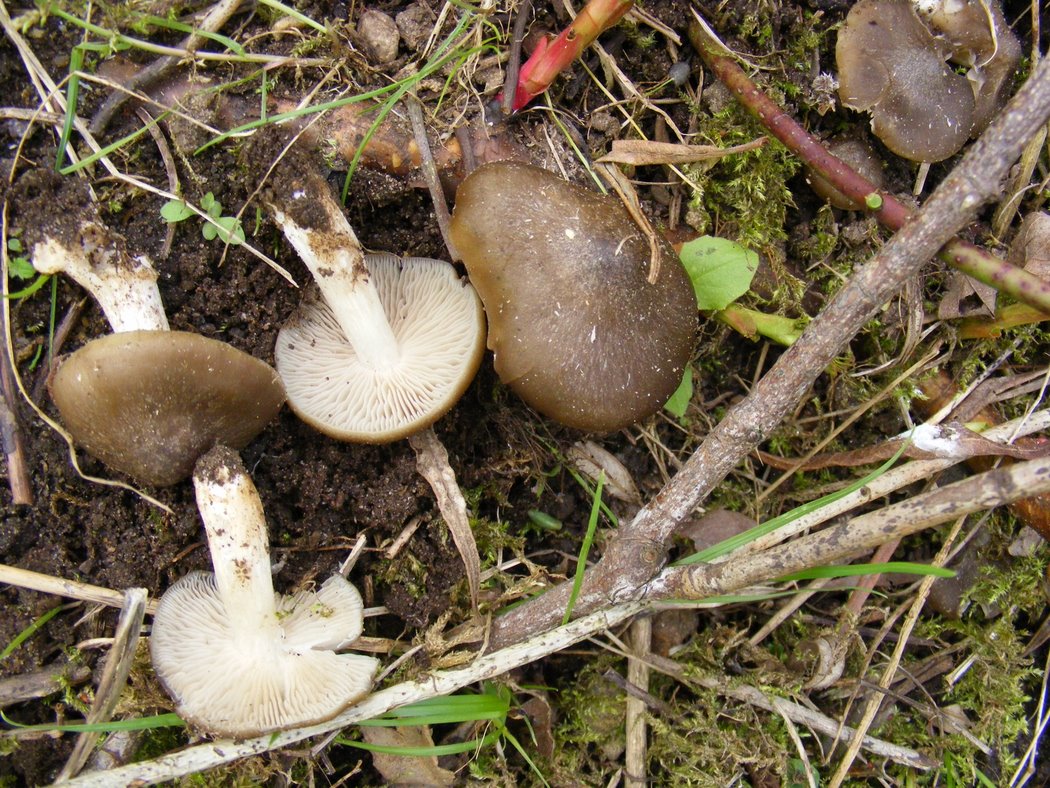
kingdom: Fungi
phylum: Basidiomycota
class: Agaricomycetes
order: Agaricales
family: Entolomataceae
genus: Entoloma
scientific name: Entoloma clypeatum
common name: flammet rødblad
